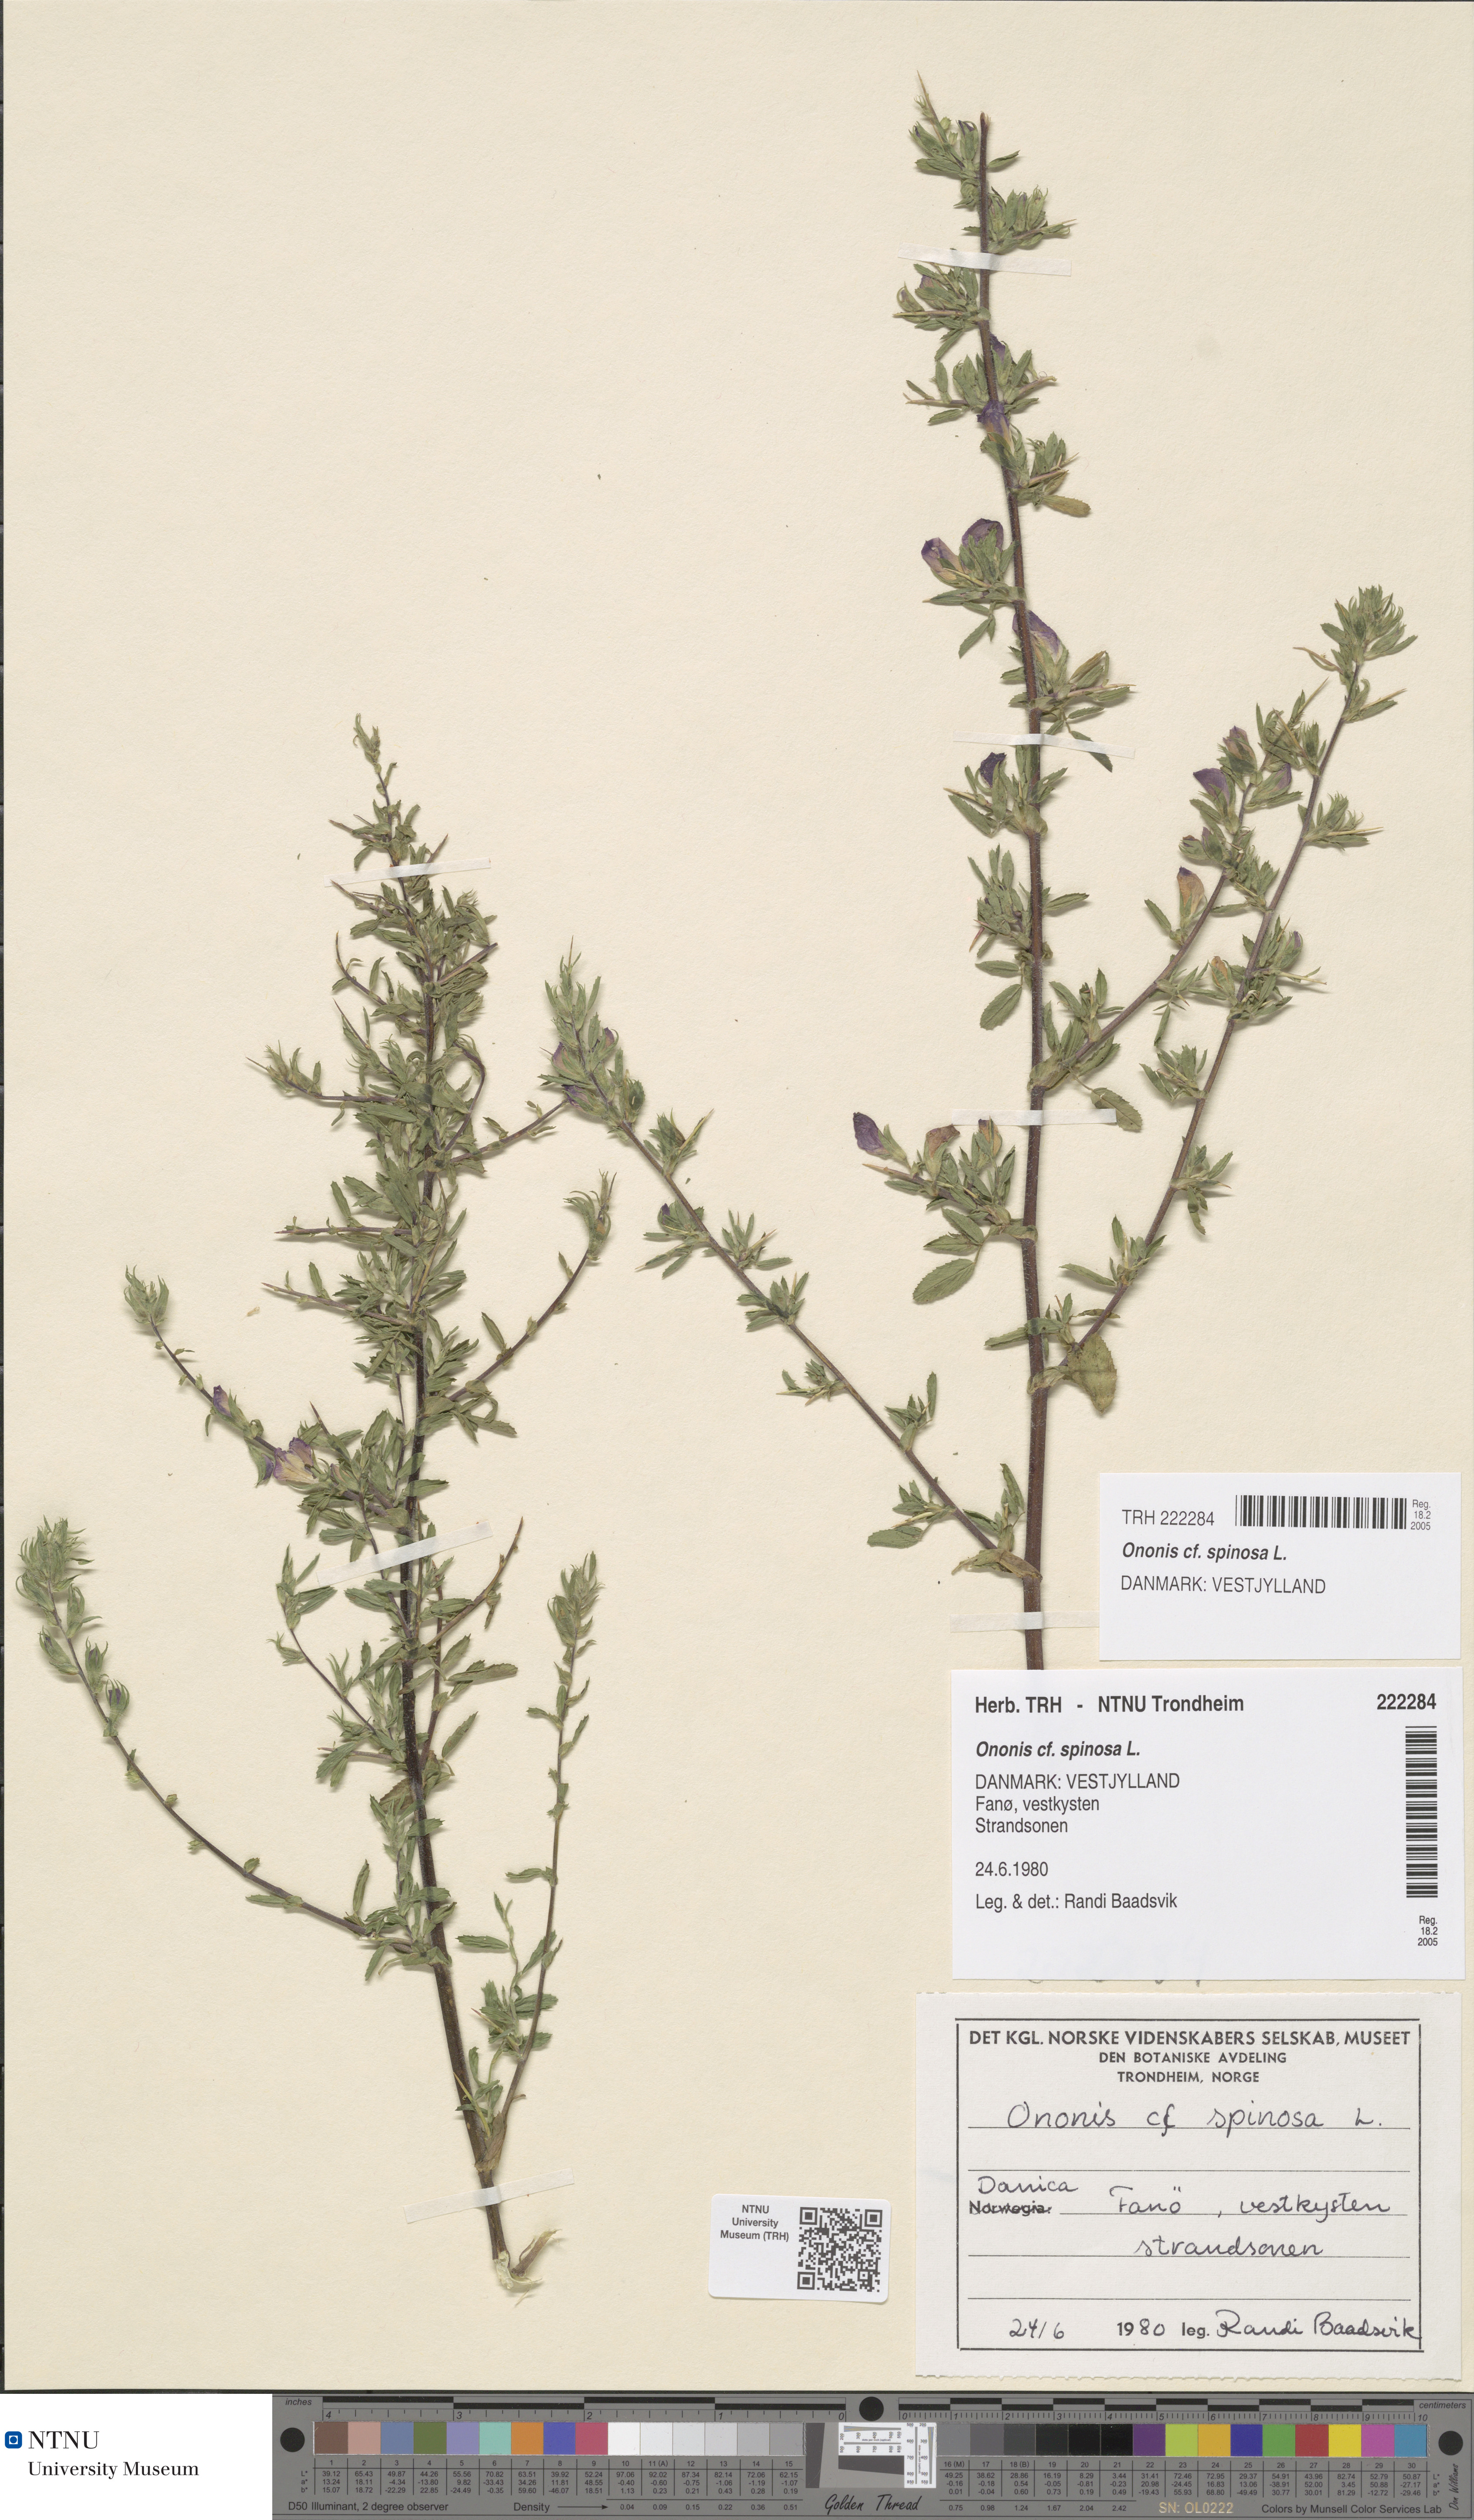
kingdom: Plantae
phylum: Tracheophyta
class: Magnoliopsida
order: Fabales
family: Fabaceae
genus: Ononis
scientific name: Ononis spinosa
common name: Spiny restharrow
